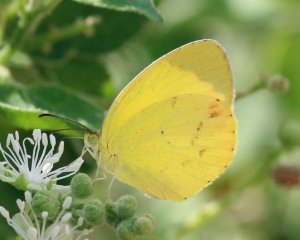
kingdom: Animalia
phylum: Arthropoda
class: Insecta
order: Lepidoptera
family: Pieridae
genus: Pyrisitia
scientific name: Pyrisitia nise
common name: Mimosa Yellow
